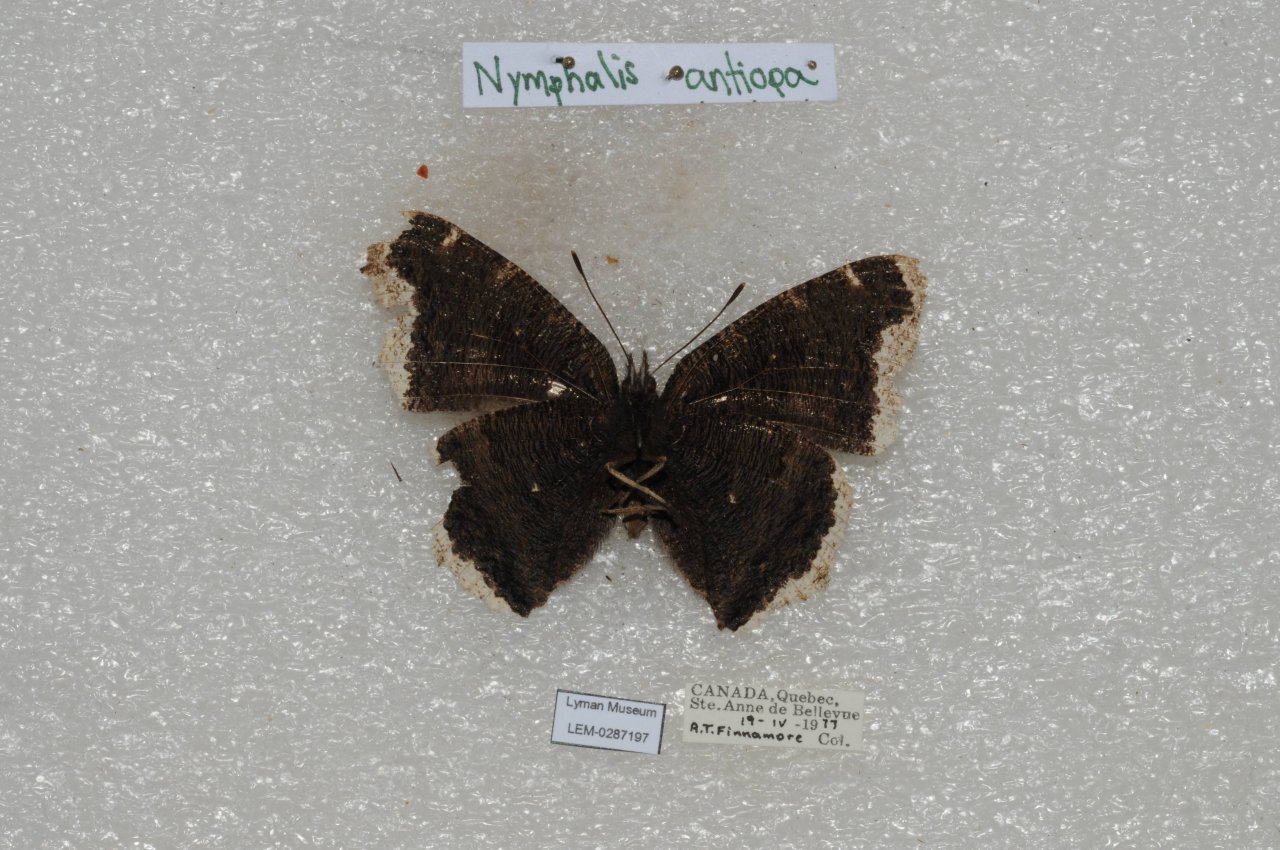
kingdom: Animalia
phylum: Arthropoda
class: Insecta
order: Lepidoptera
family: Nymphalidae
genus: Nymphalis
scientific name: Nymphalis antiopa
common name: Mourning Cloak
